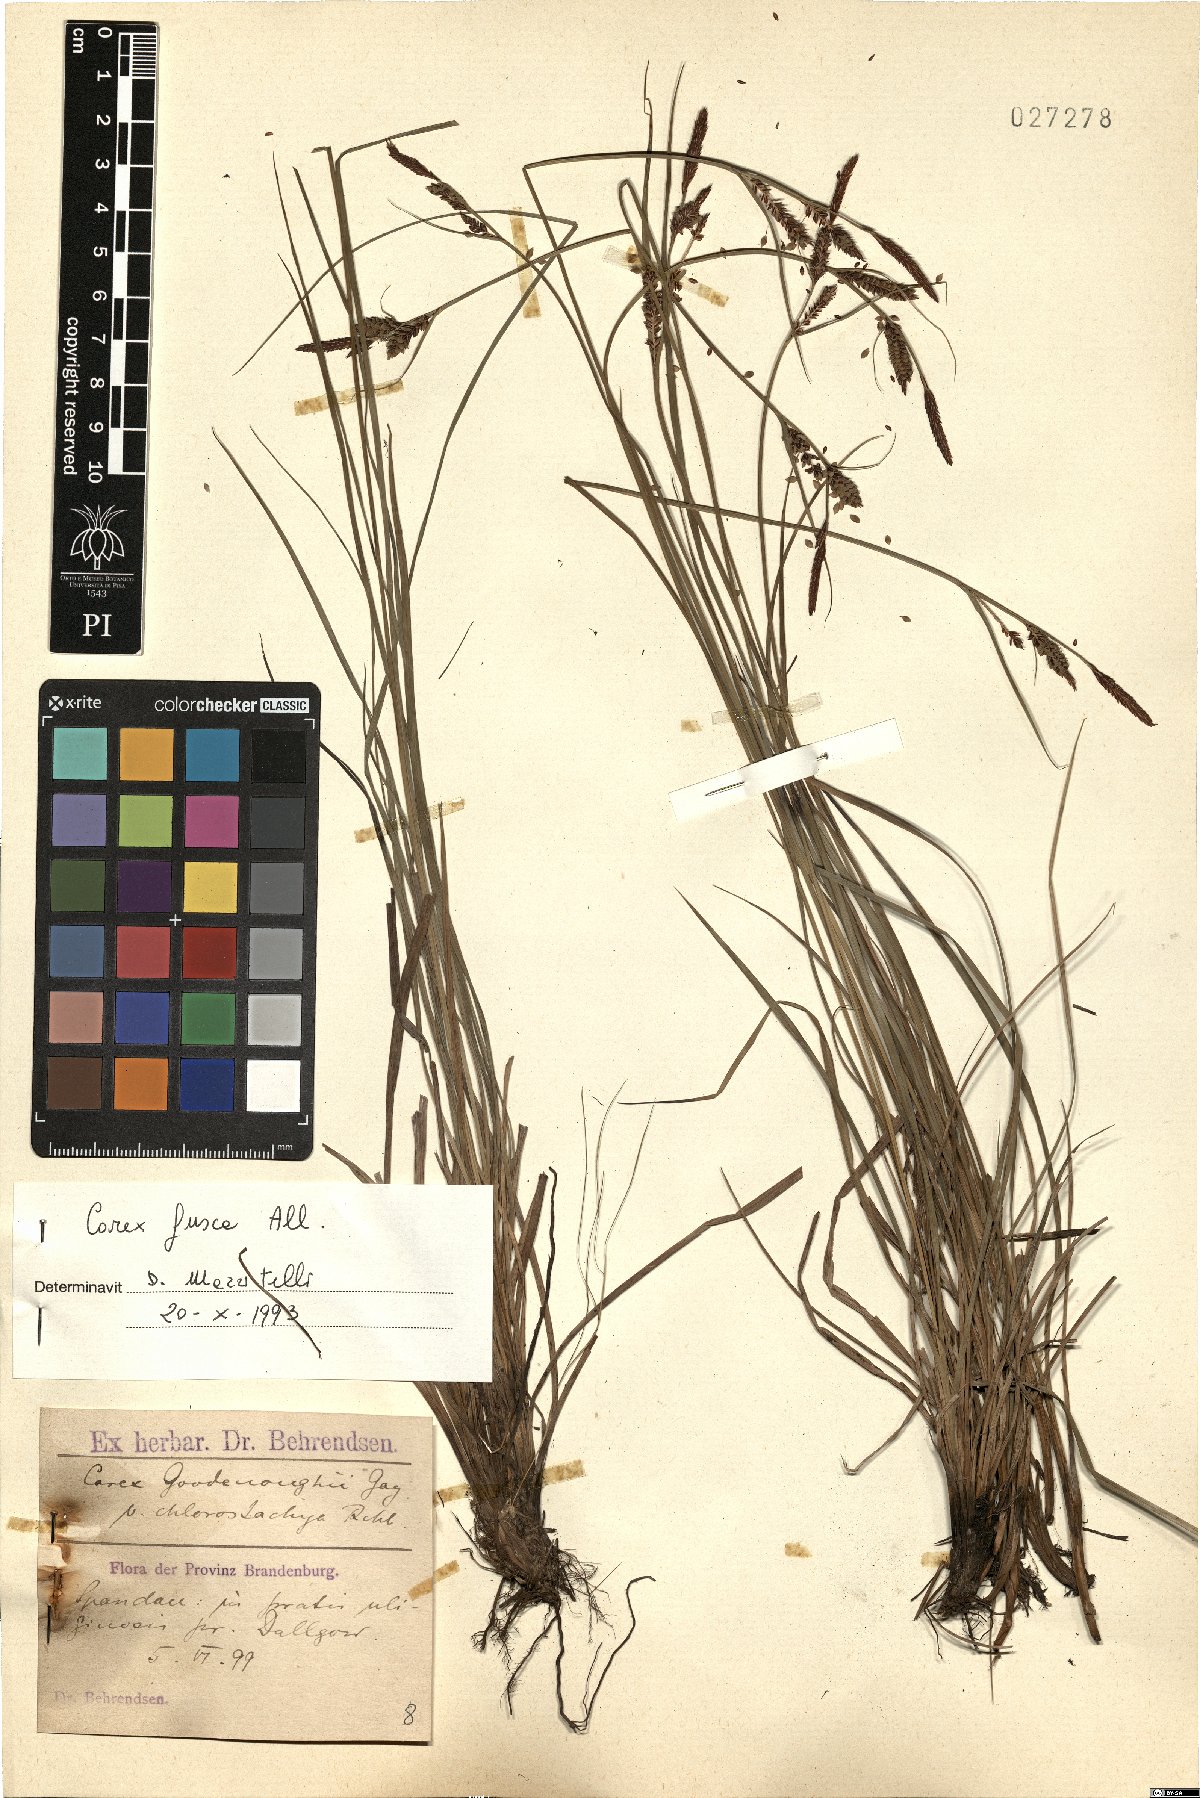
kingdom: Plantae
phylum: Tracheophyta
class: Liliopsida
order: Poales
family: Cyperaceae
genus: Carex
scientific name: Carex nigra
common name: Common sedge
